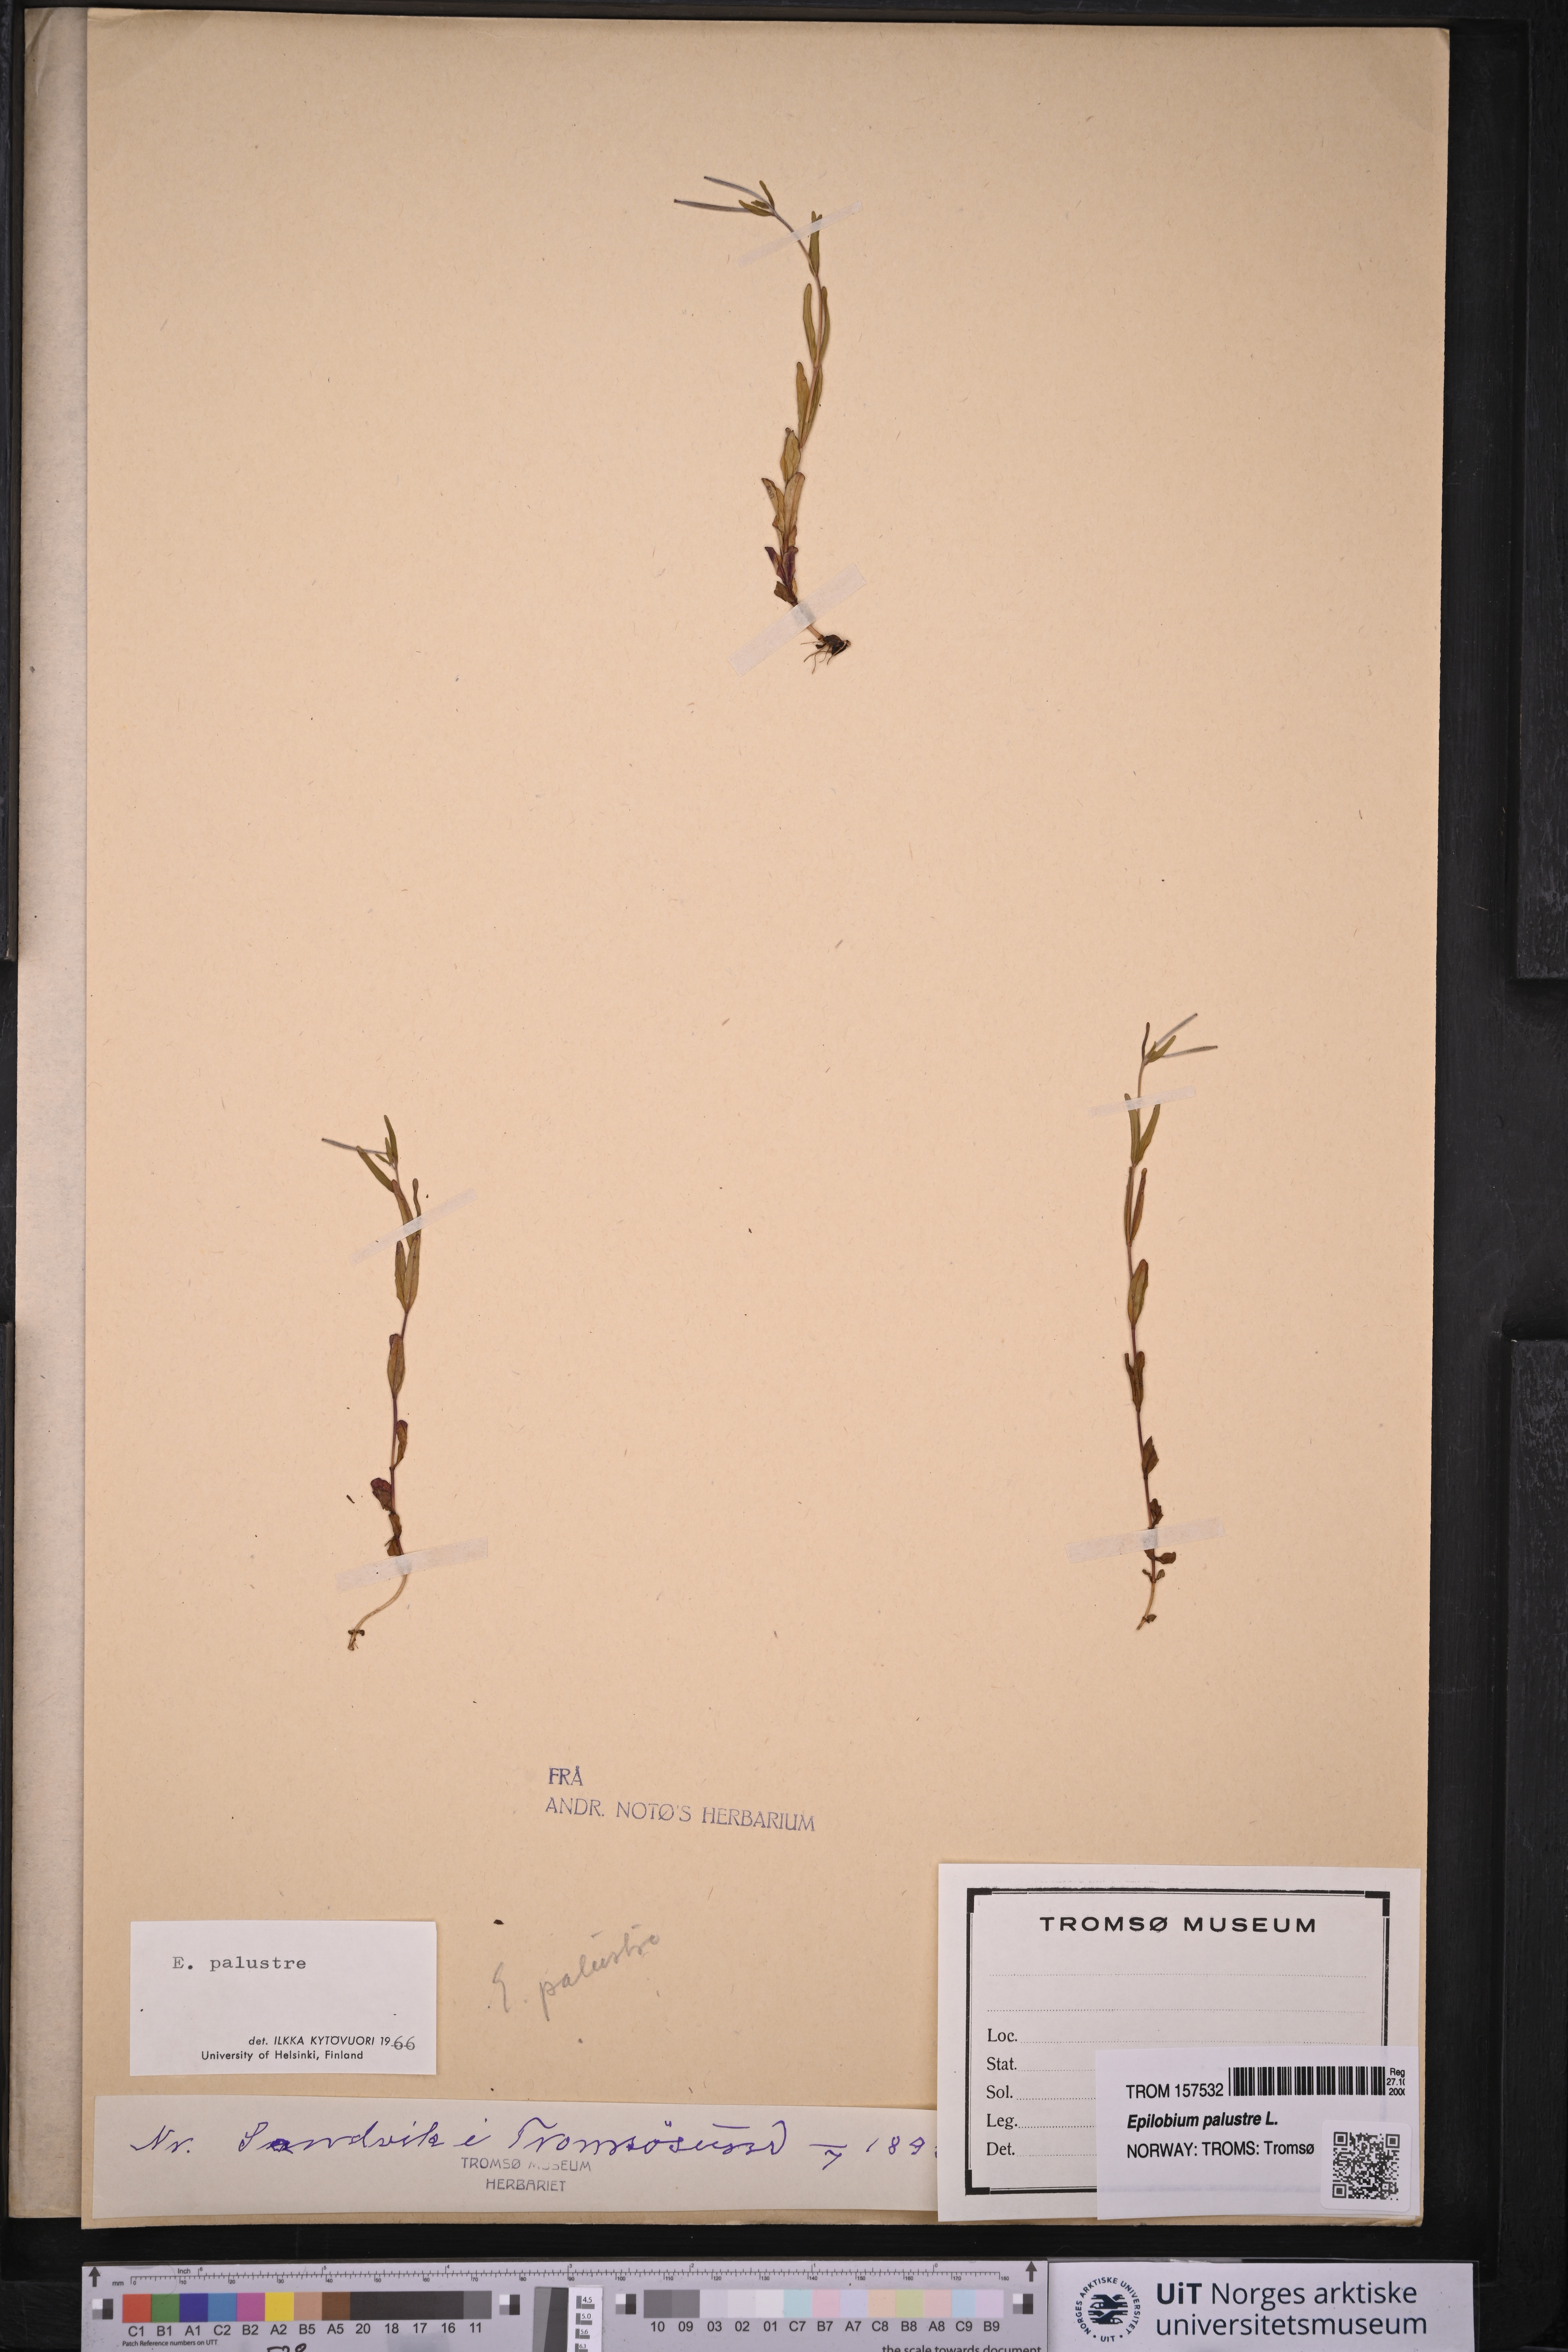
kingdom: Plantae
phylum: Tracheophyta
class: Magnoliopsida
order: Myrtales
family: Onagraceae
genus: Epilobium
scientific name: Epilobium palustre
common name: Marsh willowherb
